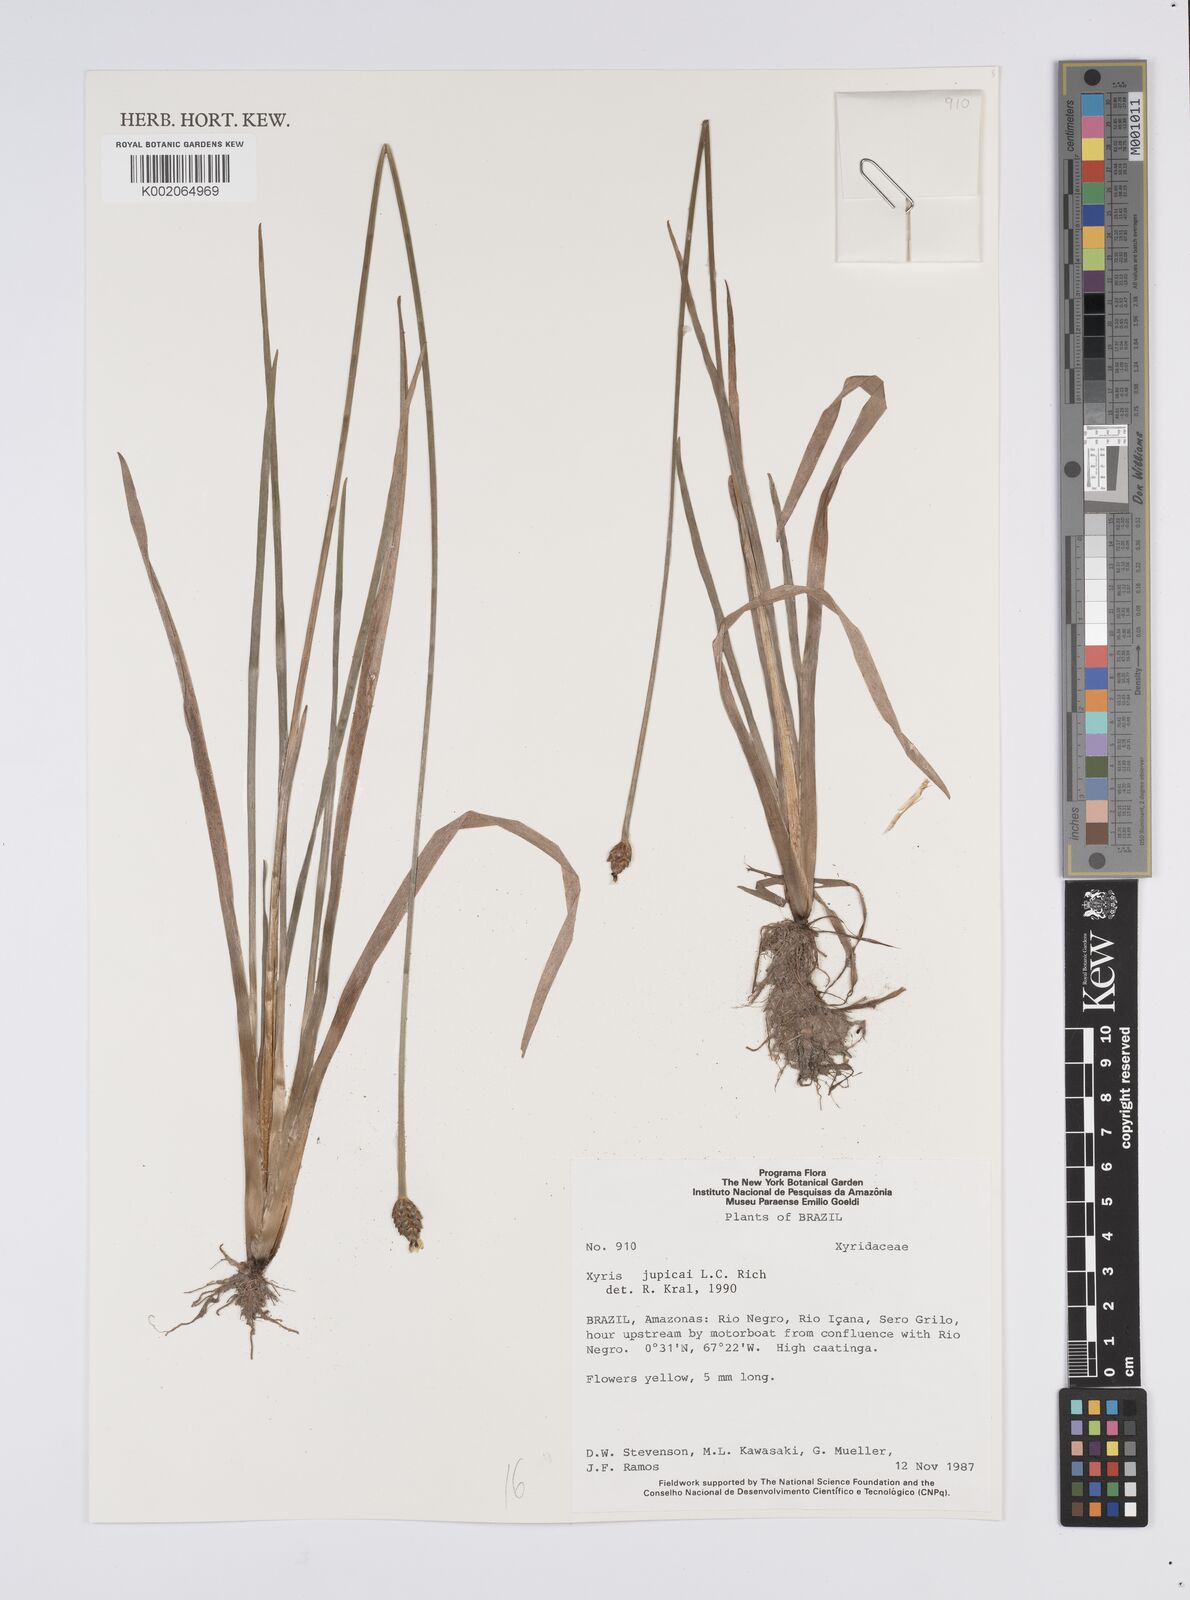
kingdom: Plantae
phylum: Tracheophyta
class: Liliopsida
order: Poales
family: Xyridaceae
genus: Xyris
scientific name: Xyris jupicai
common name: Richard's yelloweyed grass
